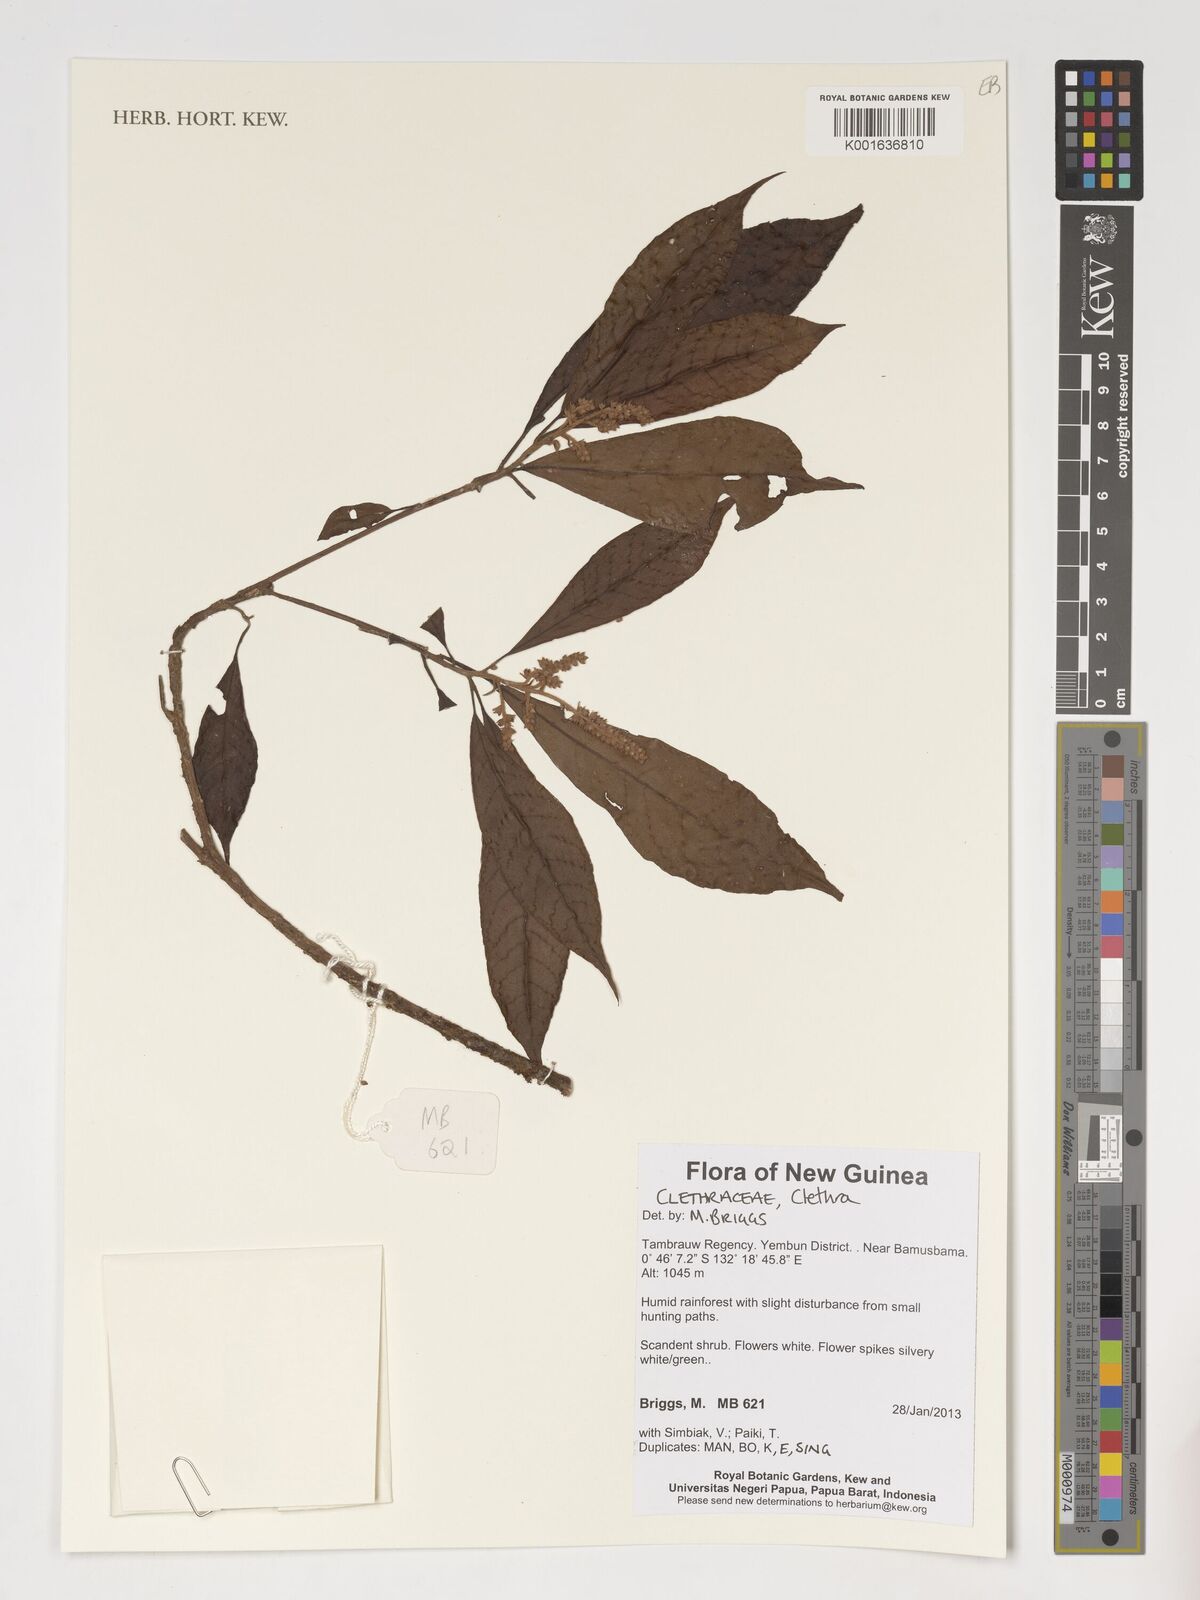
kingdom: Plantae
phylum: Tracheophyta
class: Magnoliopsida
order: Ericales
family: Clethraceae
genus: Clethra
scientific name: Clethra
